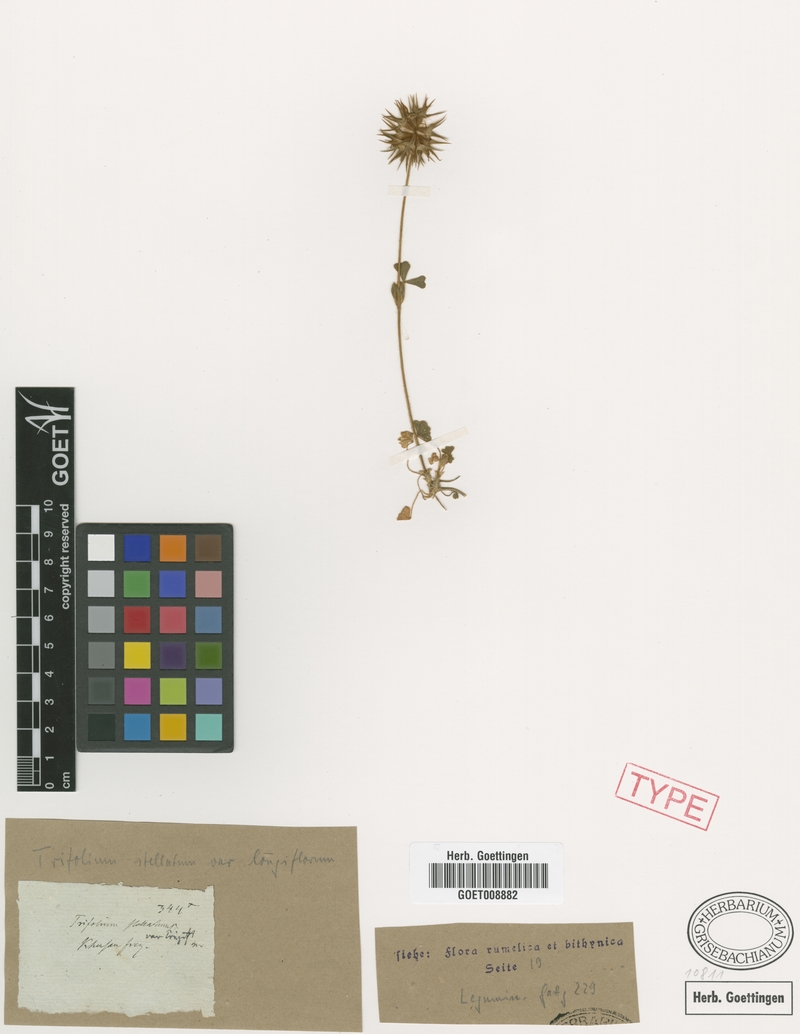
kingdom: Plantae
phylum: Tracheophyta
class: Magnoliopsida
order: Fabales
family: Fabaceae
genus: Trifolium
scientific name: Trifolium stellatum
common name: Starry clover
